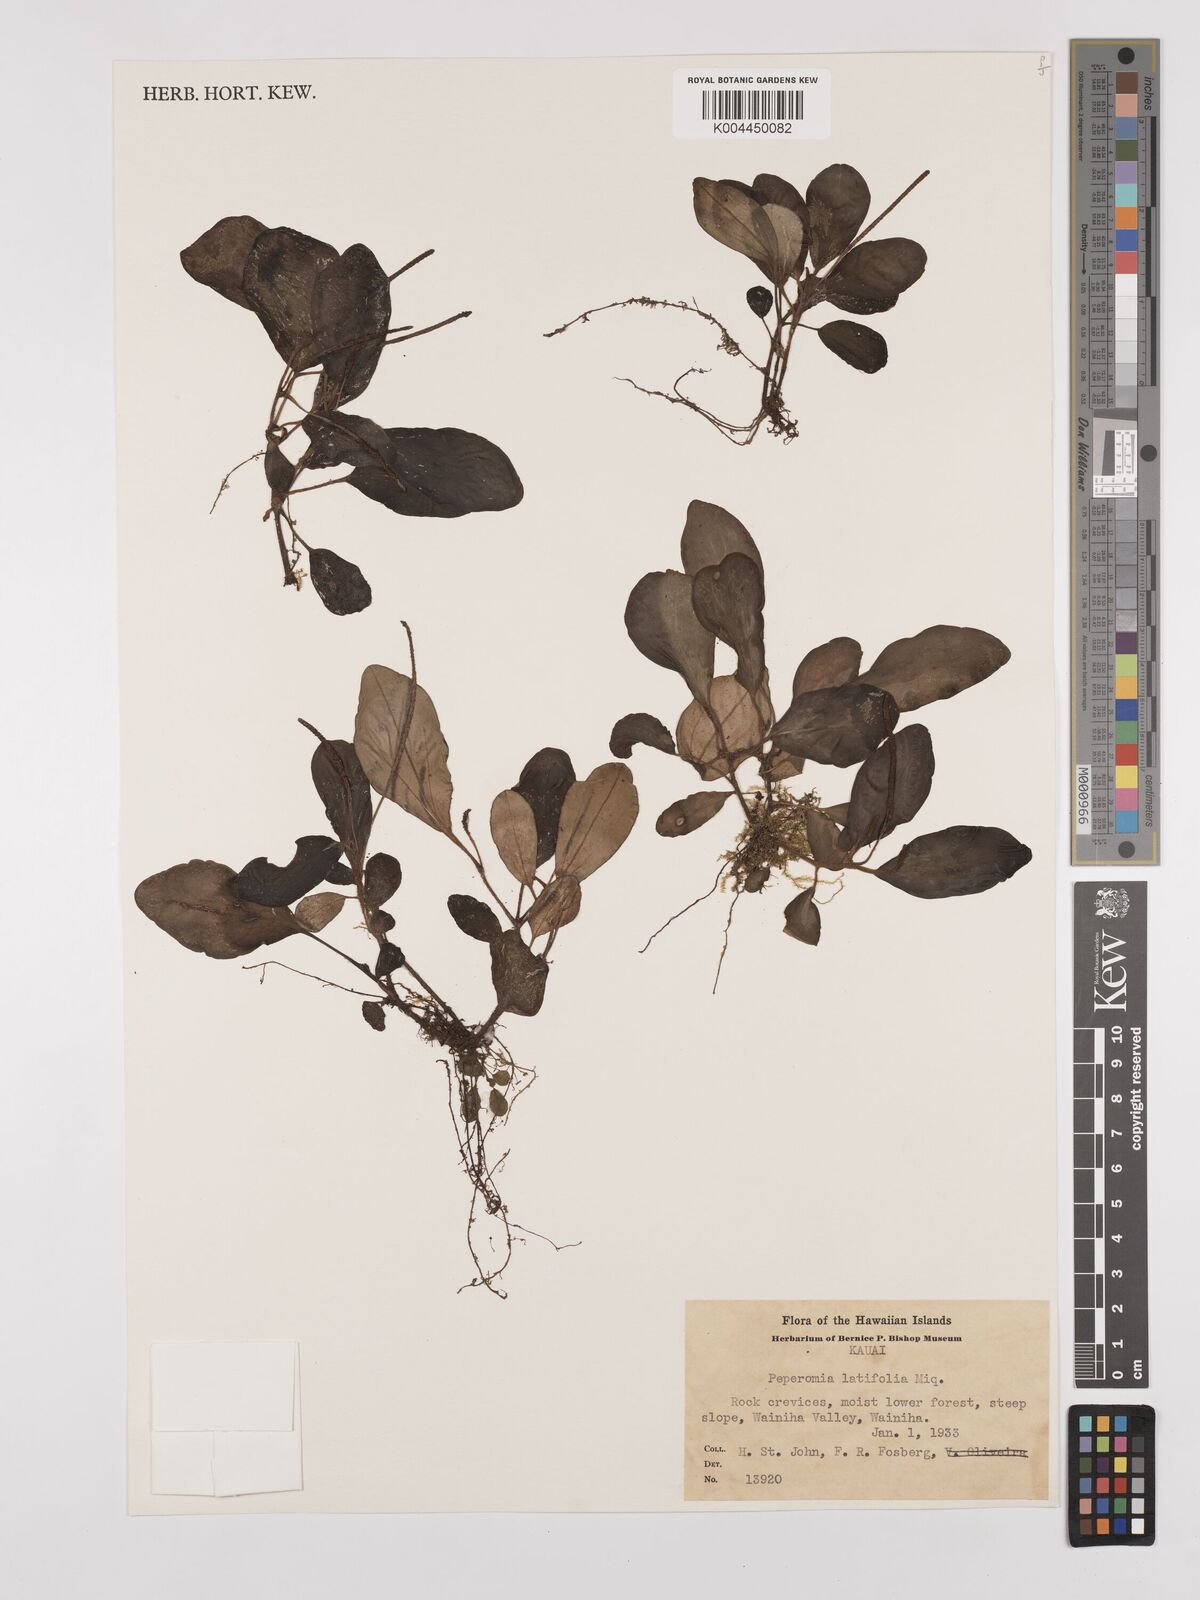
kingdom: Plantae
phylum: Tracheophyta
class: Magnoliopsida
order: Piperales
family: Piperaceae
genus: Peperomia
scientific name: Peperomia latifolia
